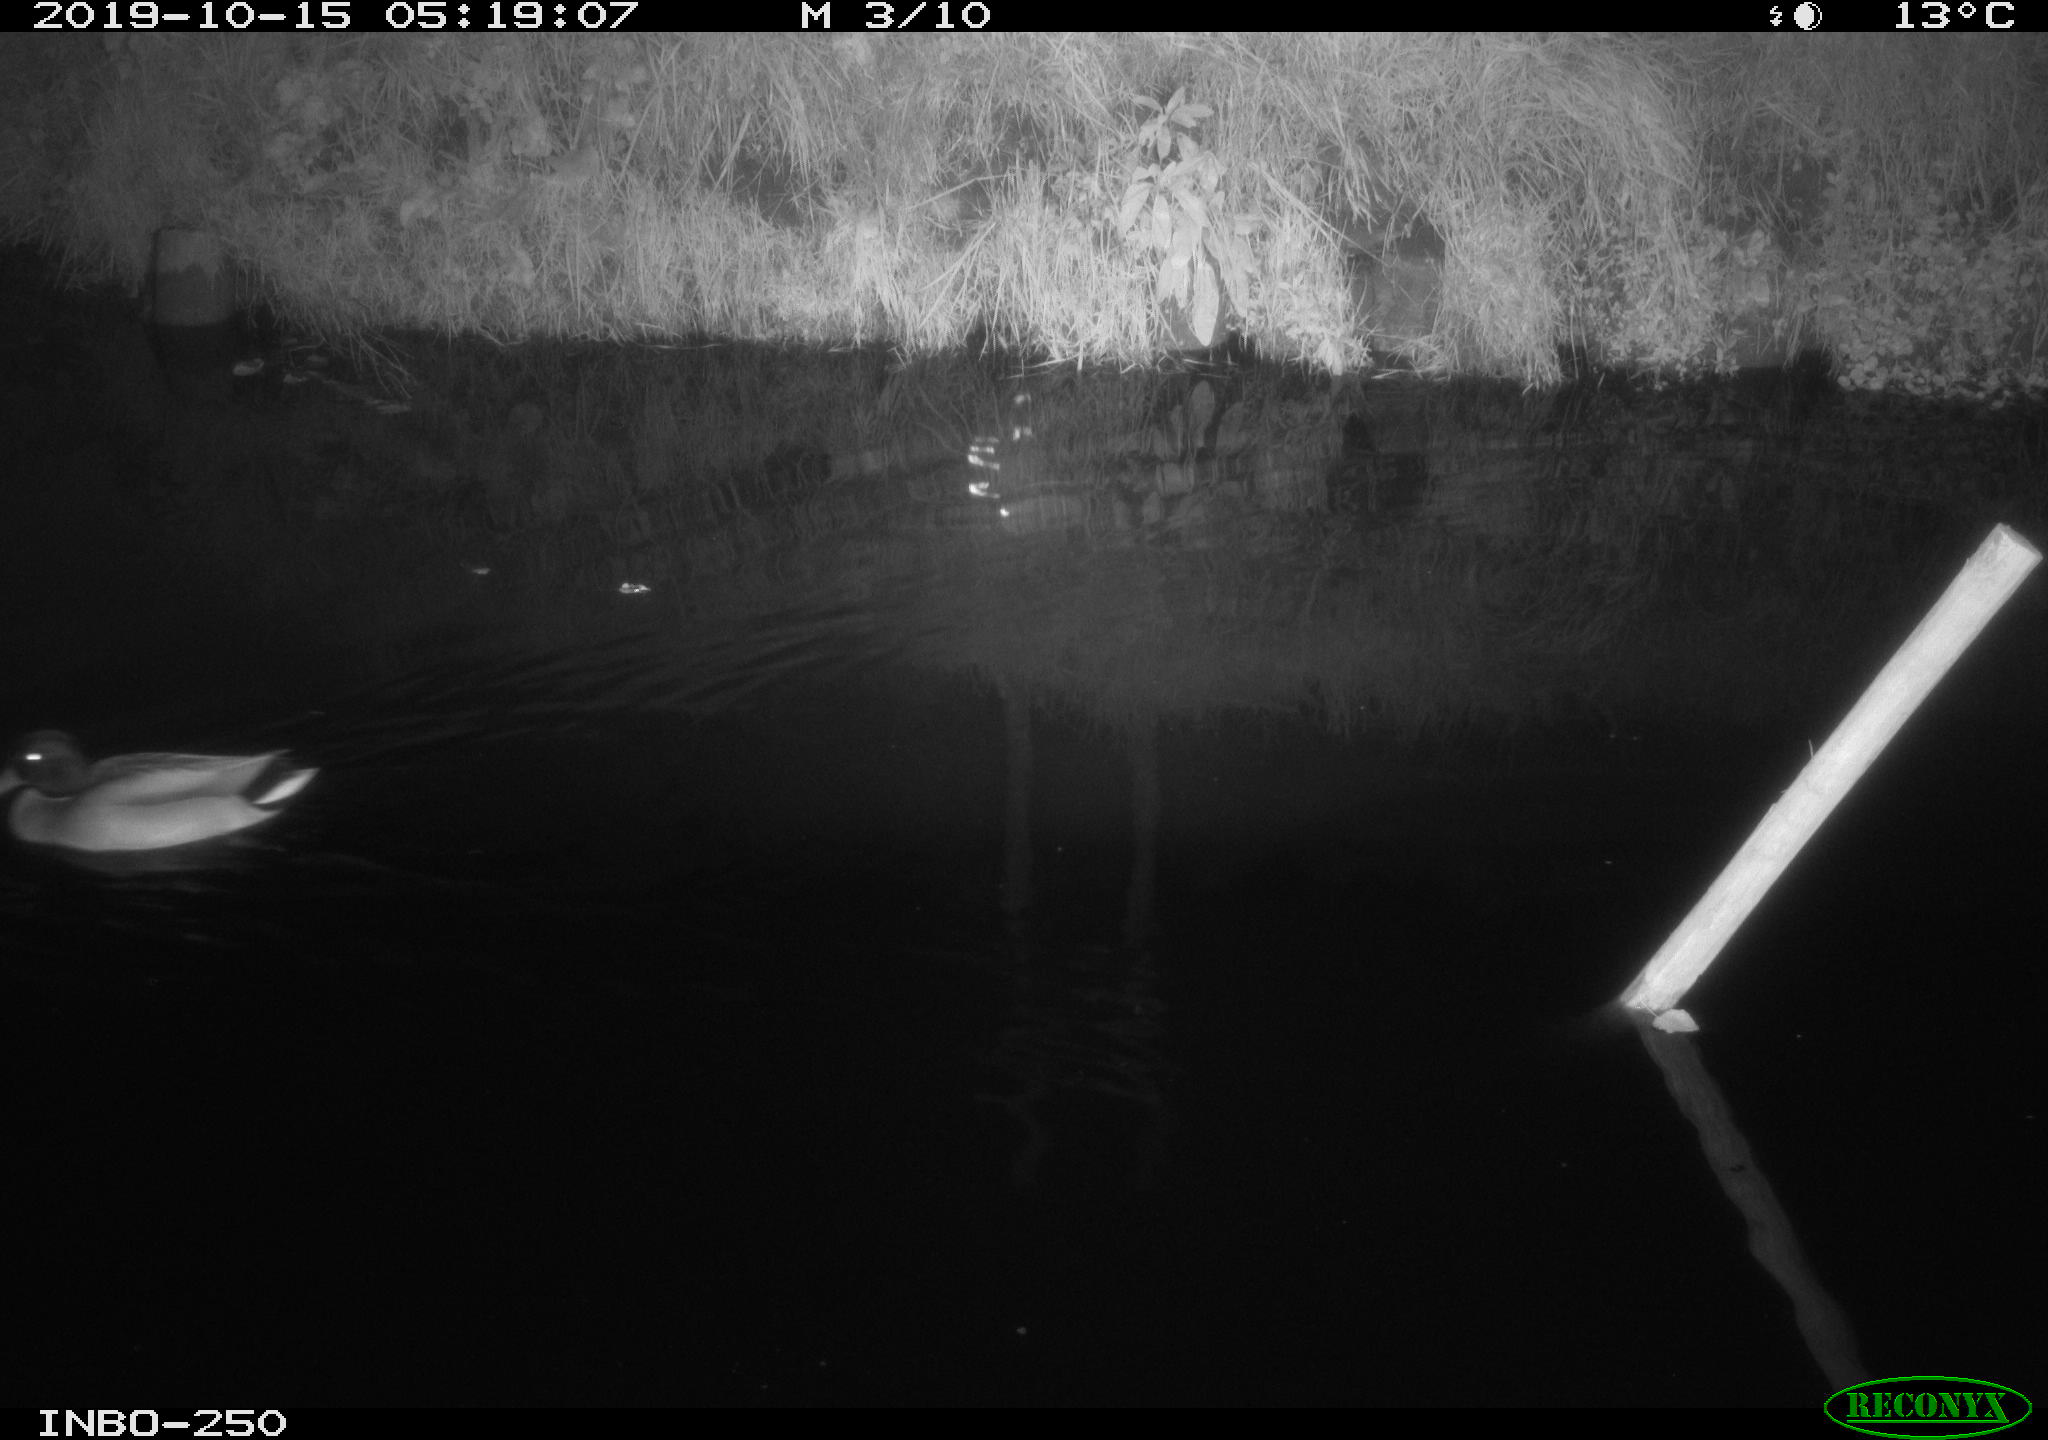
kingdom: Animalia
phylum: Chordata
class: Aves
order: Anseriformes
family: Anatidae
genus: Anas
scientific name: Anas platyrhynchos
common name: Mallard
